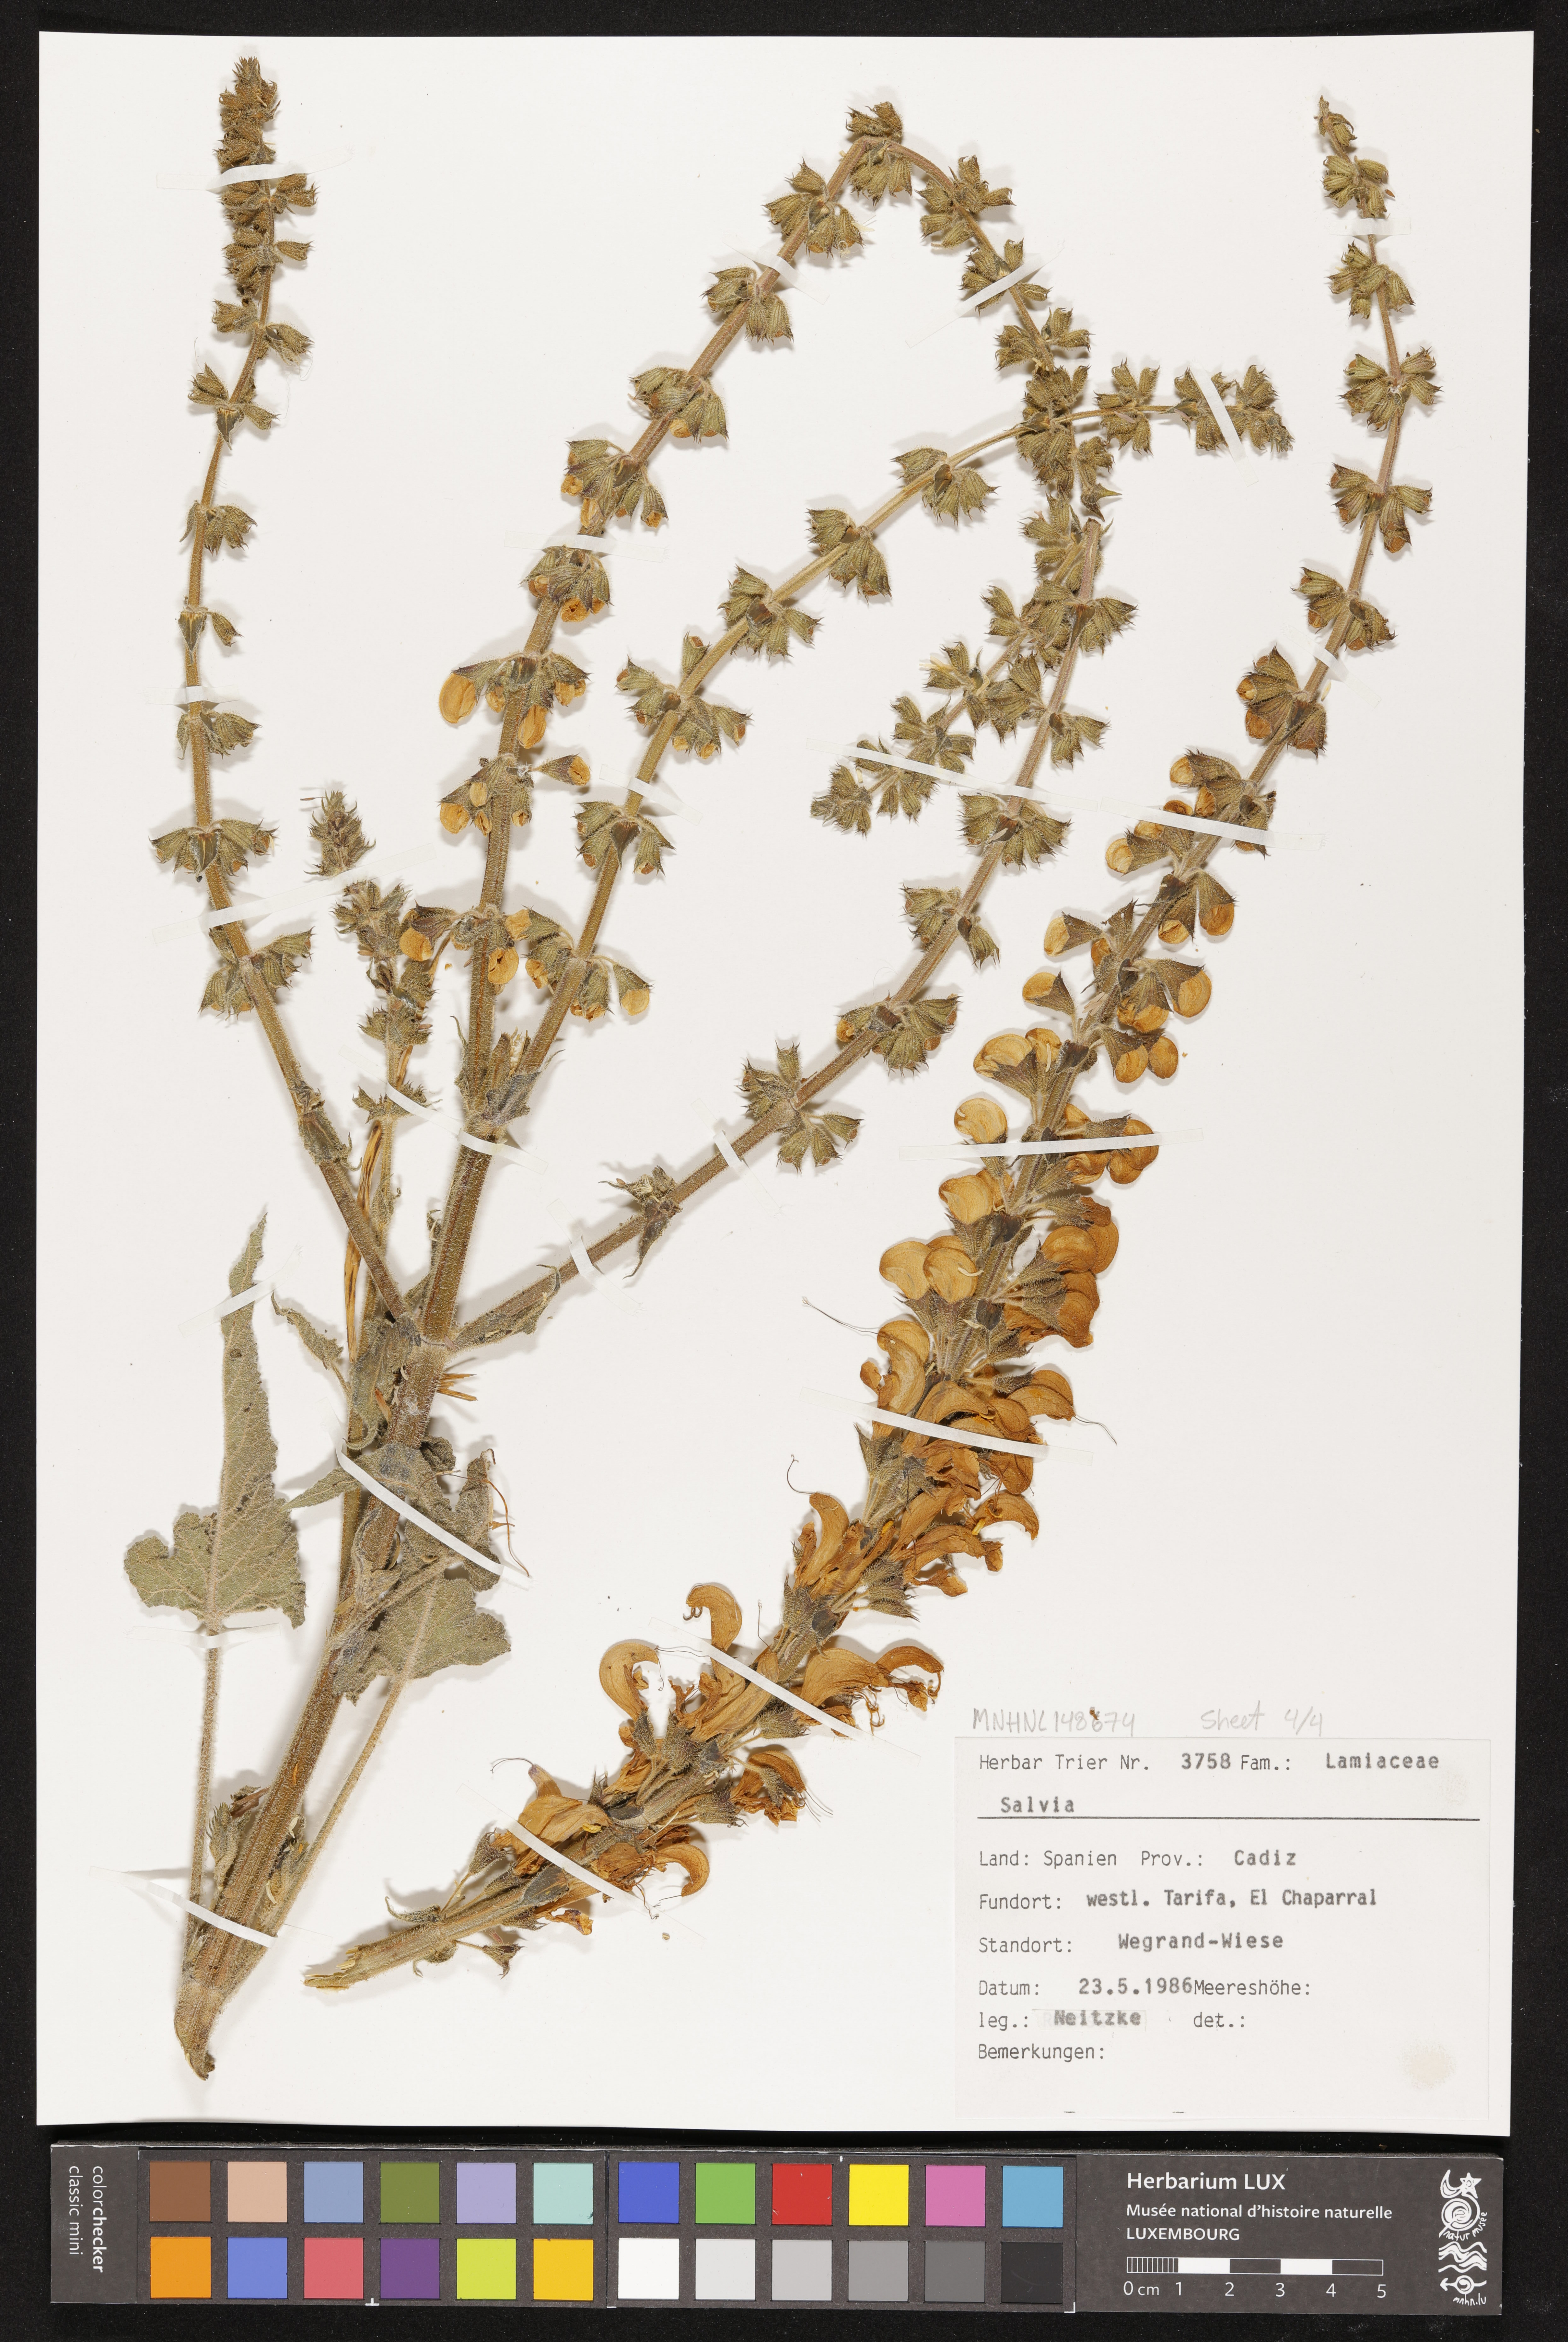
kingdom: Plantae
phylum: Tracheophyta
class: Magnoliopsida
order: Lamiales
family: Lamiaceae
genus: Salvia
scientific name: Salvia
